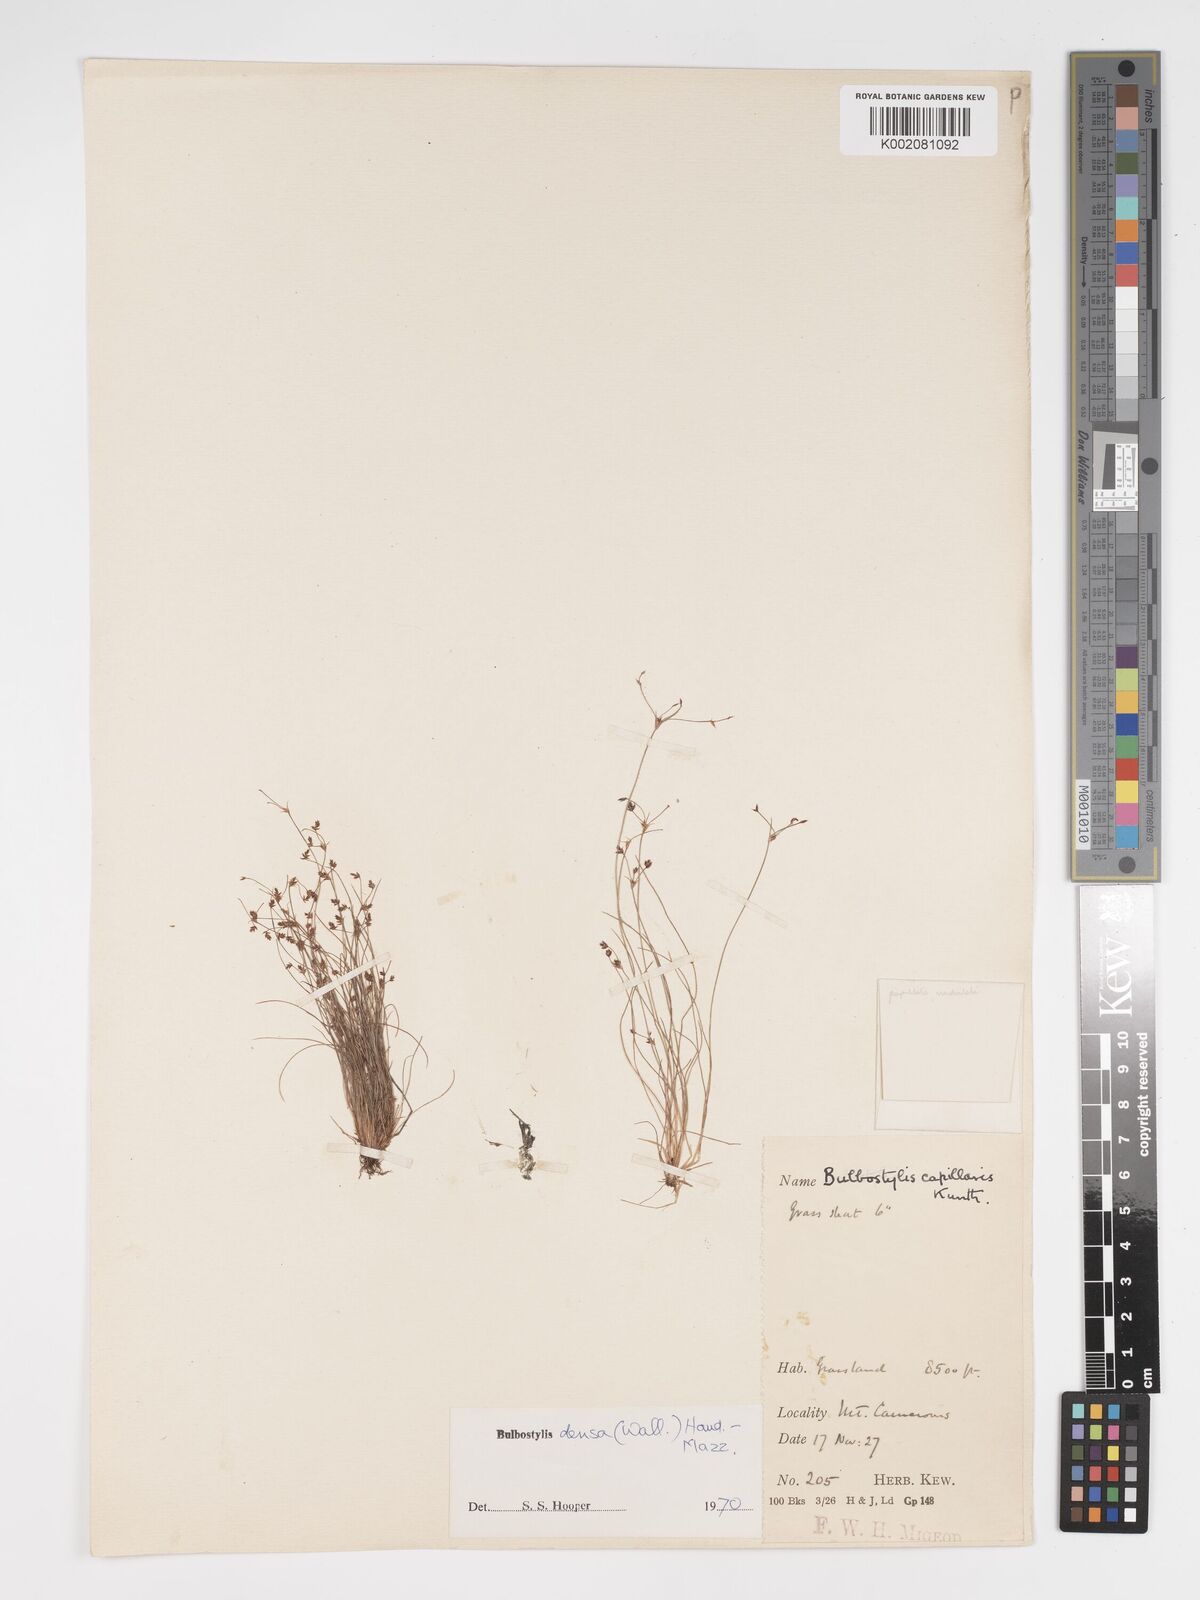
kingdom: Plantae
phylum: Tracheophyta
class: Liliopsida
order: Poales
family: Cyperaceae
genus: Bulbostylis
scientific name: Bulbostylis densa
